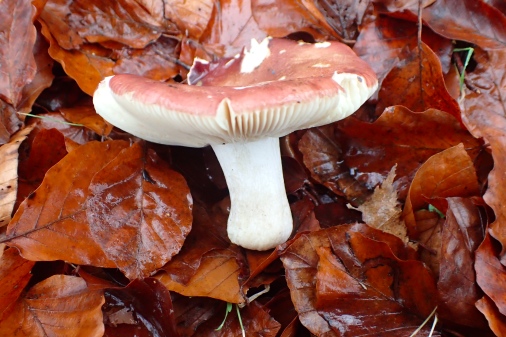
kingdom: Fungi
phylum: Basidiomycota
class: Agaricomycetes
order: Russulales
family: Russulaceae
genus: Russula
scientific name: Russula curtipes
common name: kortstokket skørhat
